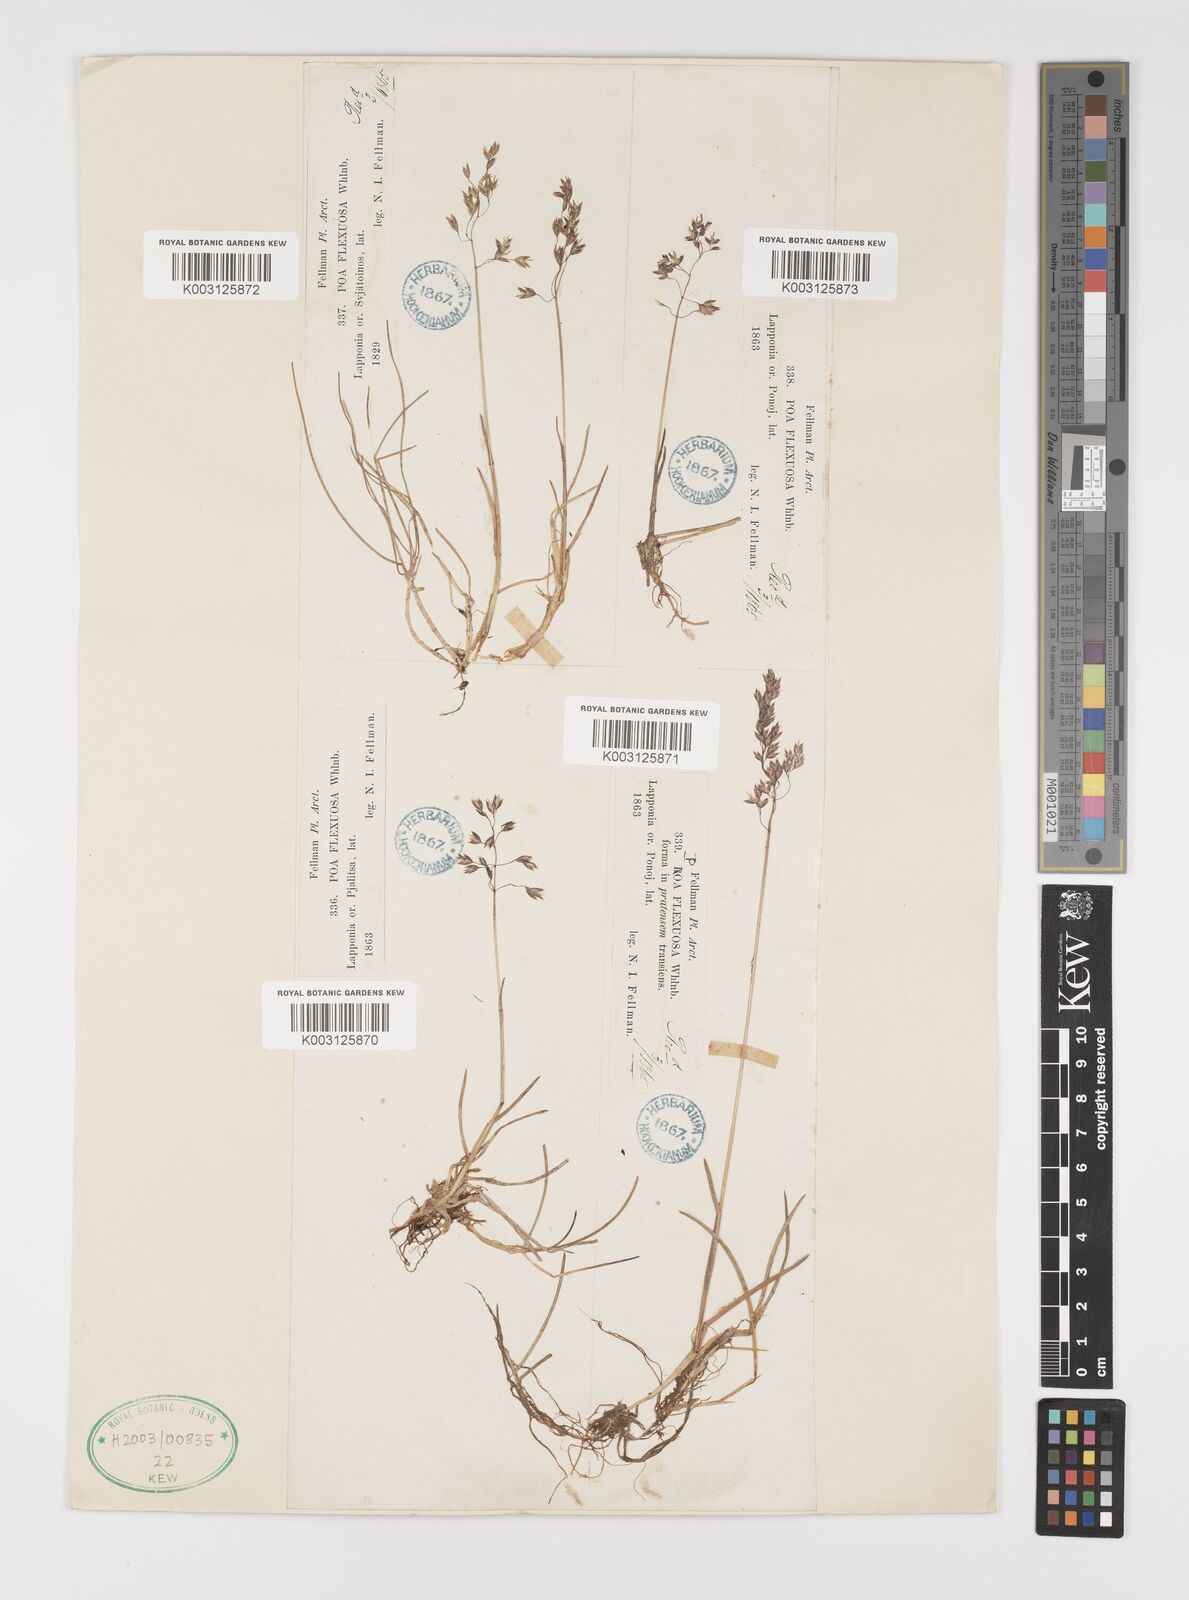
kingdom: Plantae
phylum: Tracheophyta
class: Liliopsida
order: Poales
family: Poaceae
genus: Eragrostis
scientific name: Eragrostis cilianensis
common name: Stinkgrass
